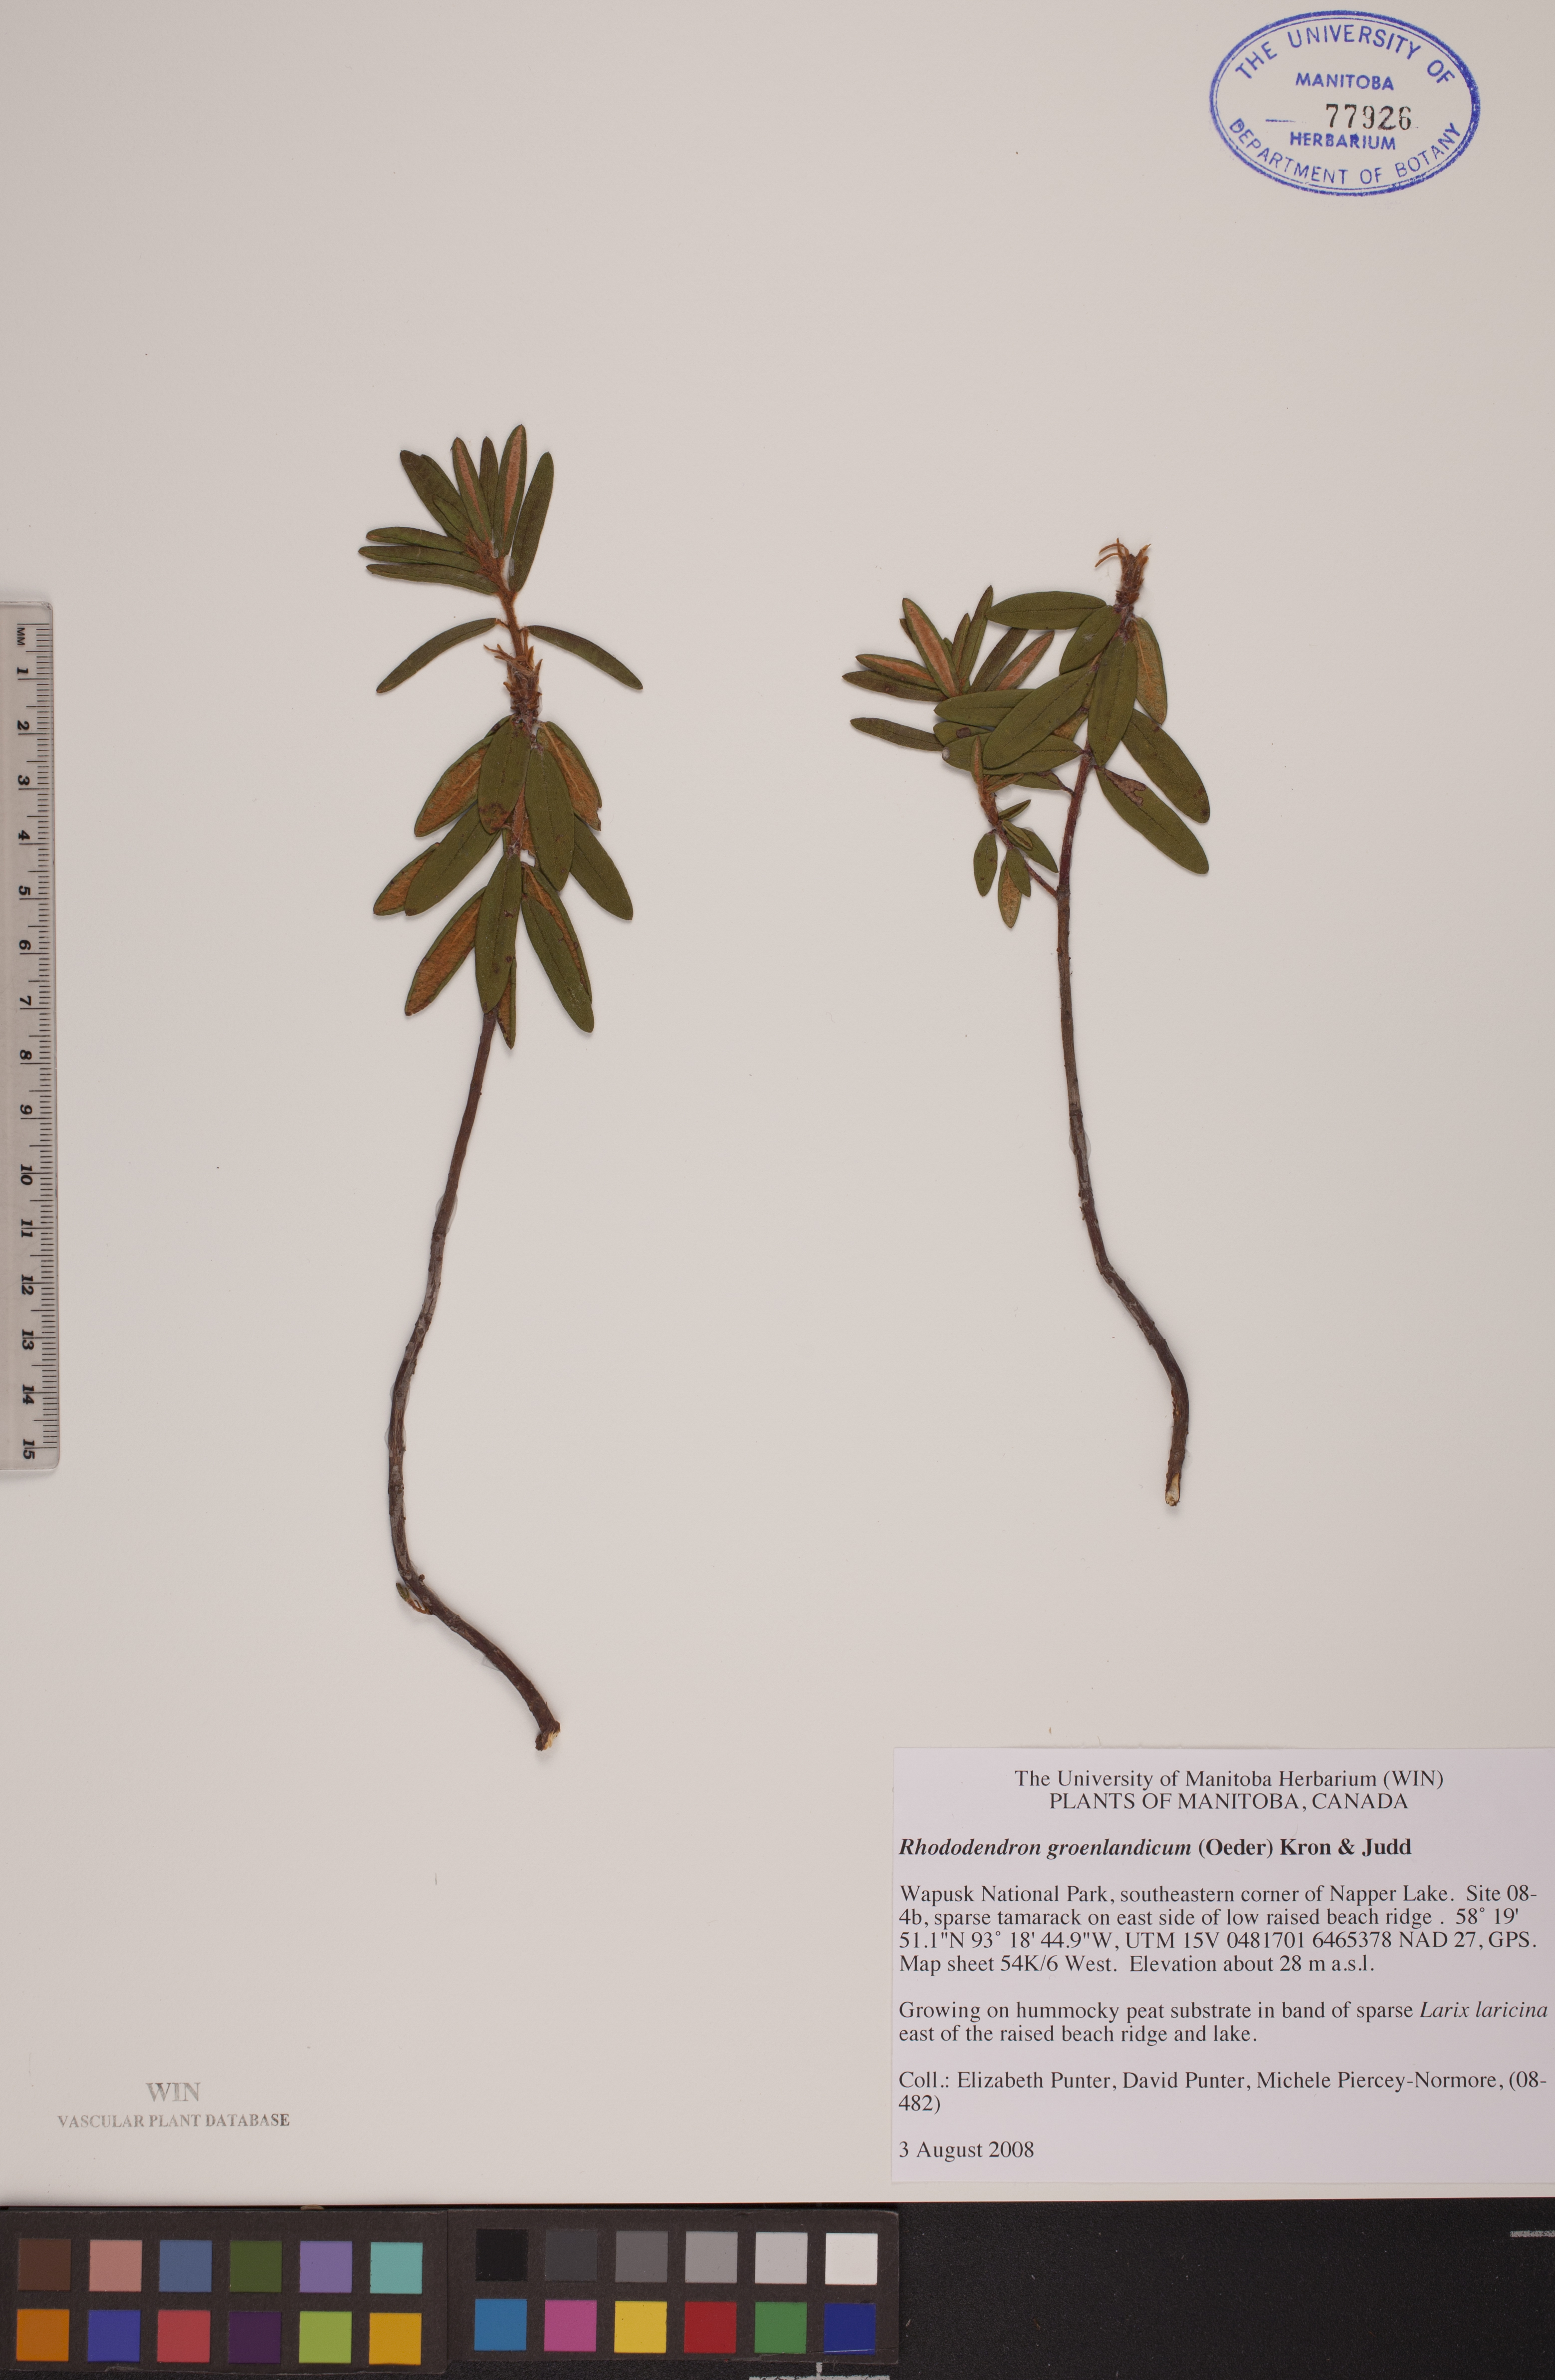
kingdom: Plantae
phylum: Tracheophyta
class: Magnoliopsida
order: Ericales
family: Ericaceae
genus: Rhododendron
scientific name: Rhododendron groenlandicum
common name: Bog labrador tea
